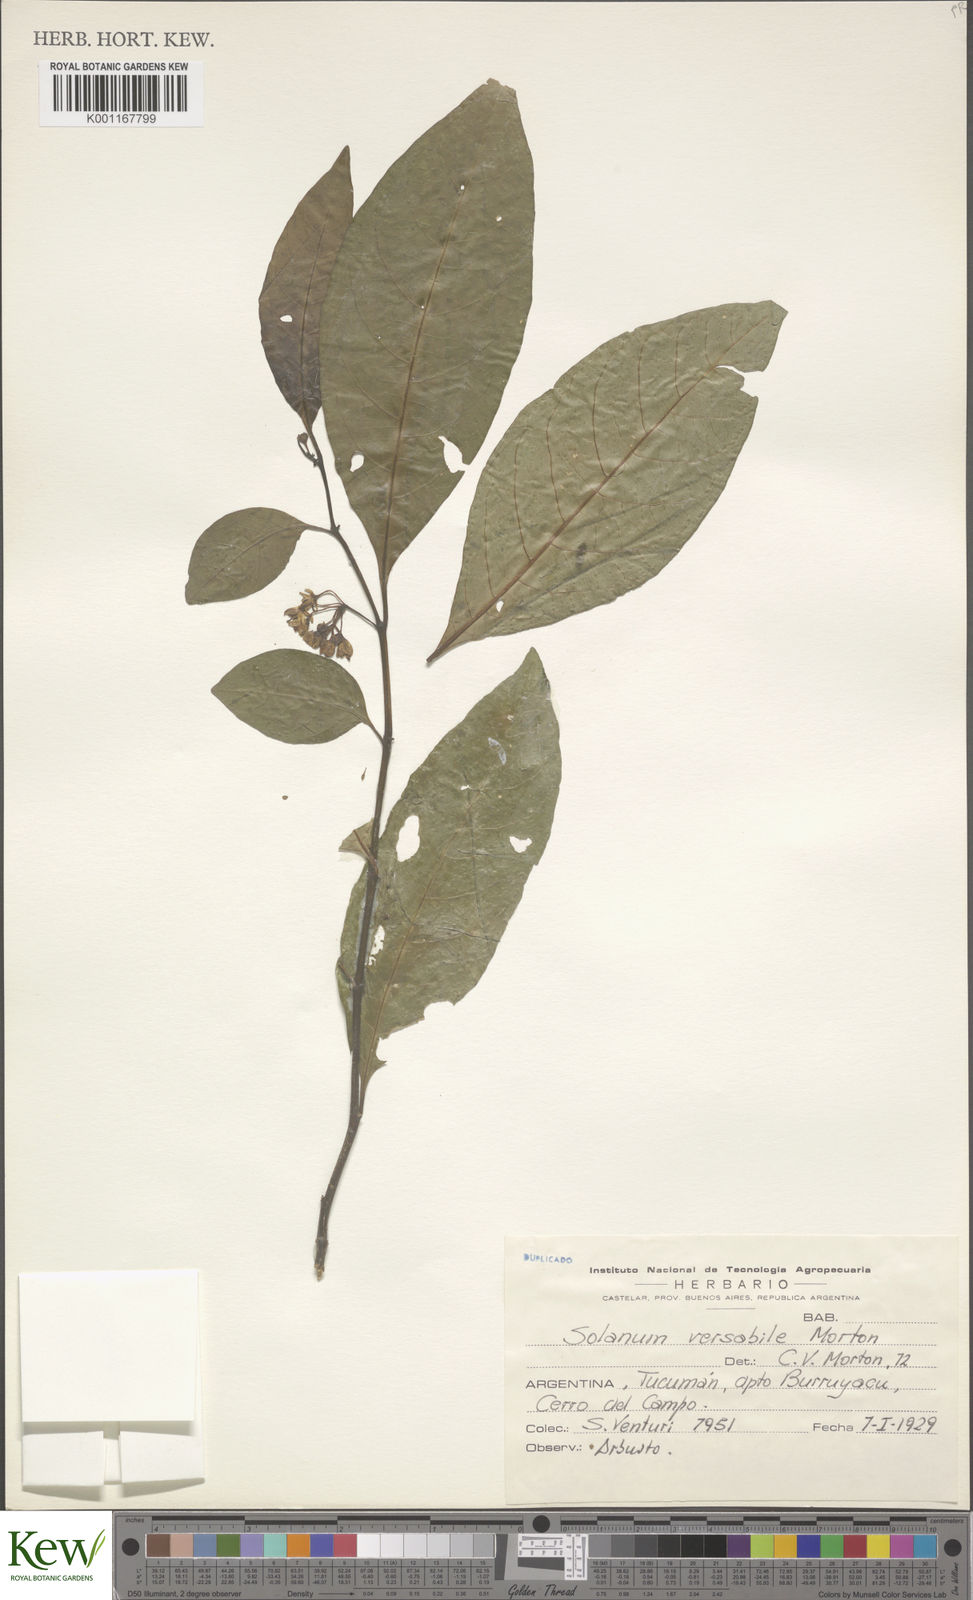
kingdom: Plantae
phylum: Tracheophyta
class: Magnoliopsida
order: Solanales
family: Solanaceae
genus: Solanum
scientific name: Solanum symmetricum
